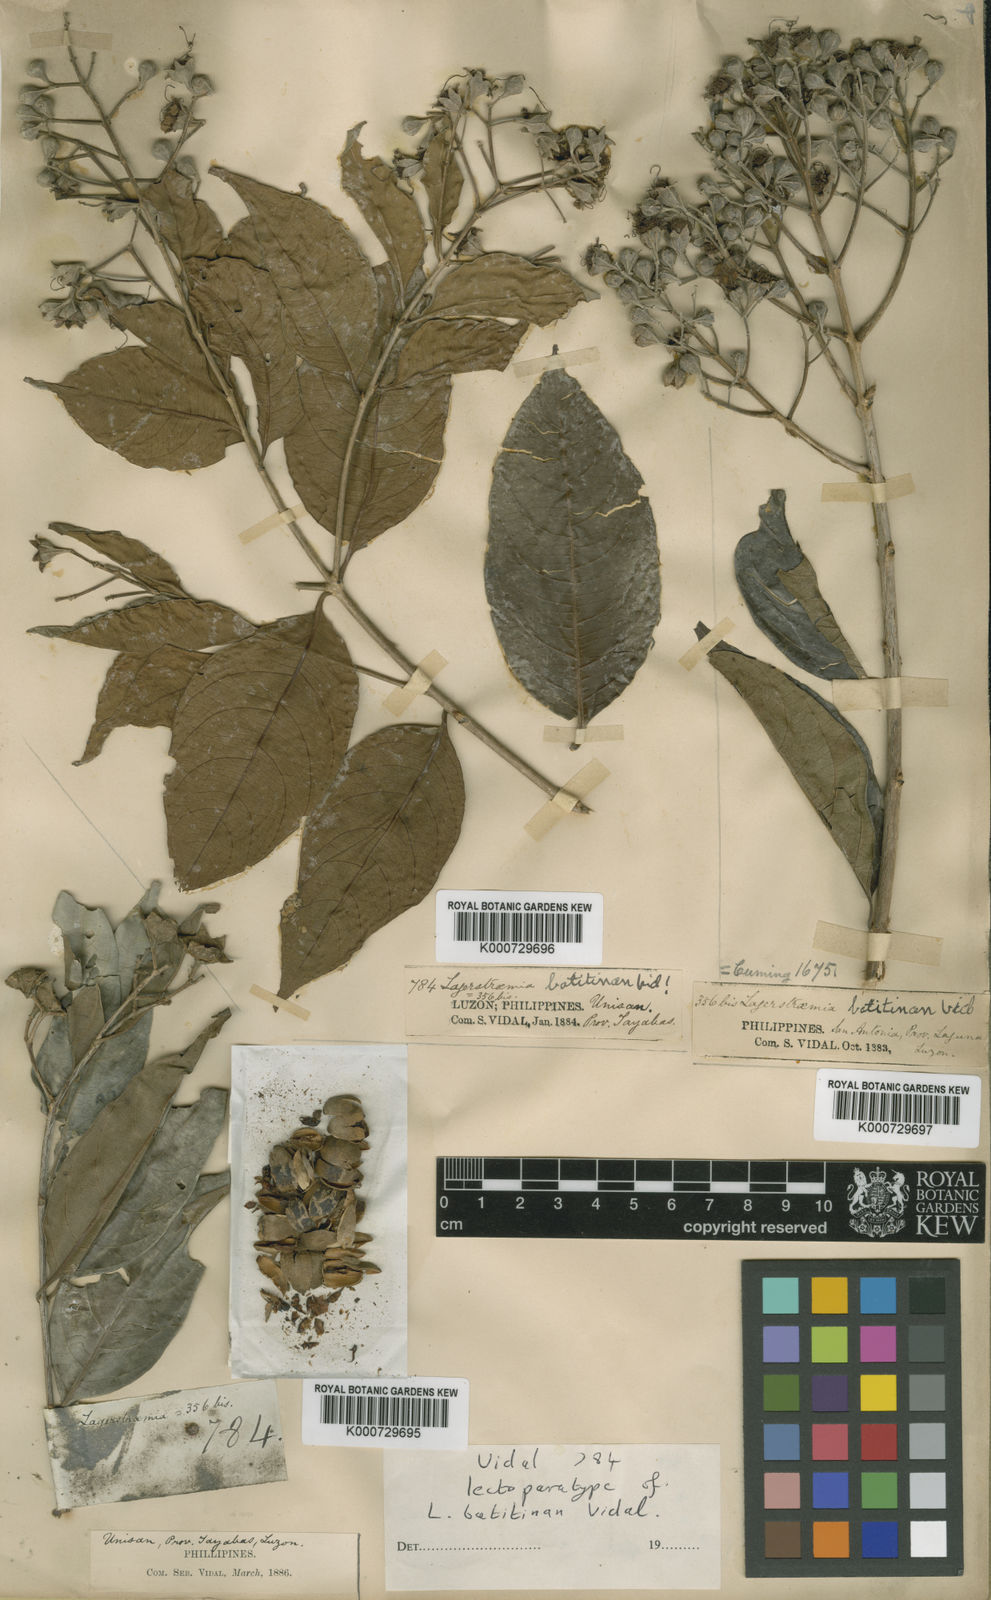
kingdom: Plantae
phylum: Tracheophyta
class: Magnoliopsida
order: Myrtales
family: Lythraceae
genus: Lagerstroemia
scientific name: Lagerstroemia celebica
